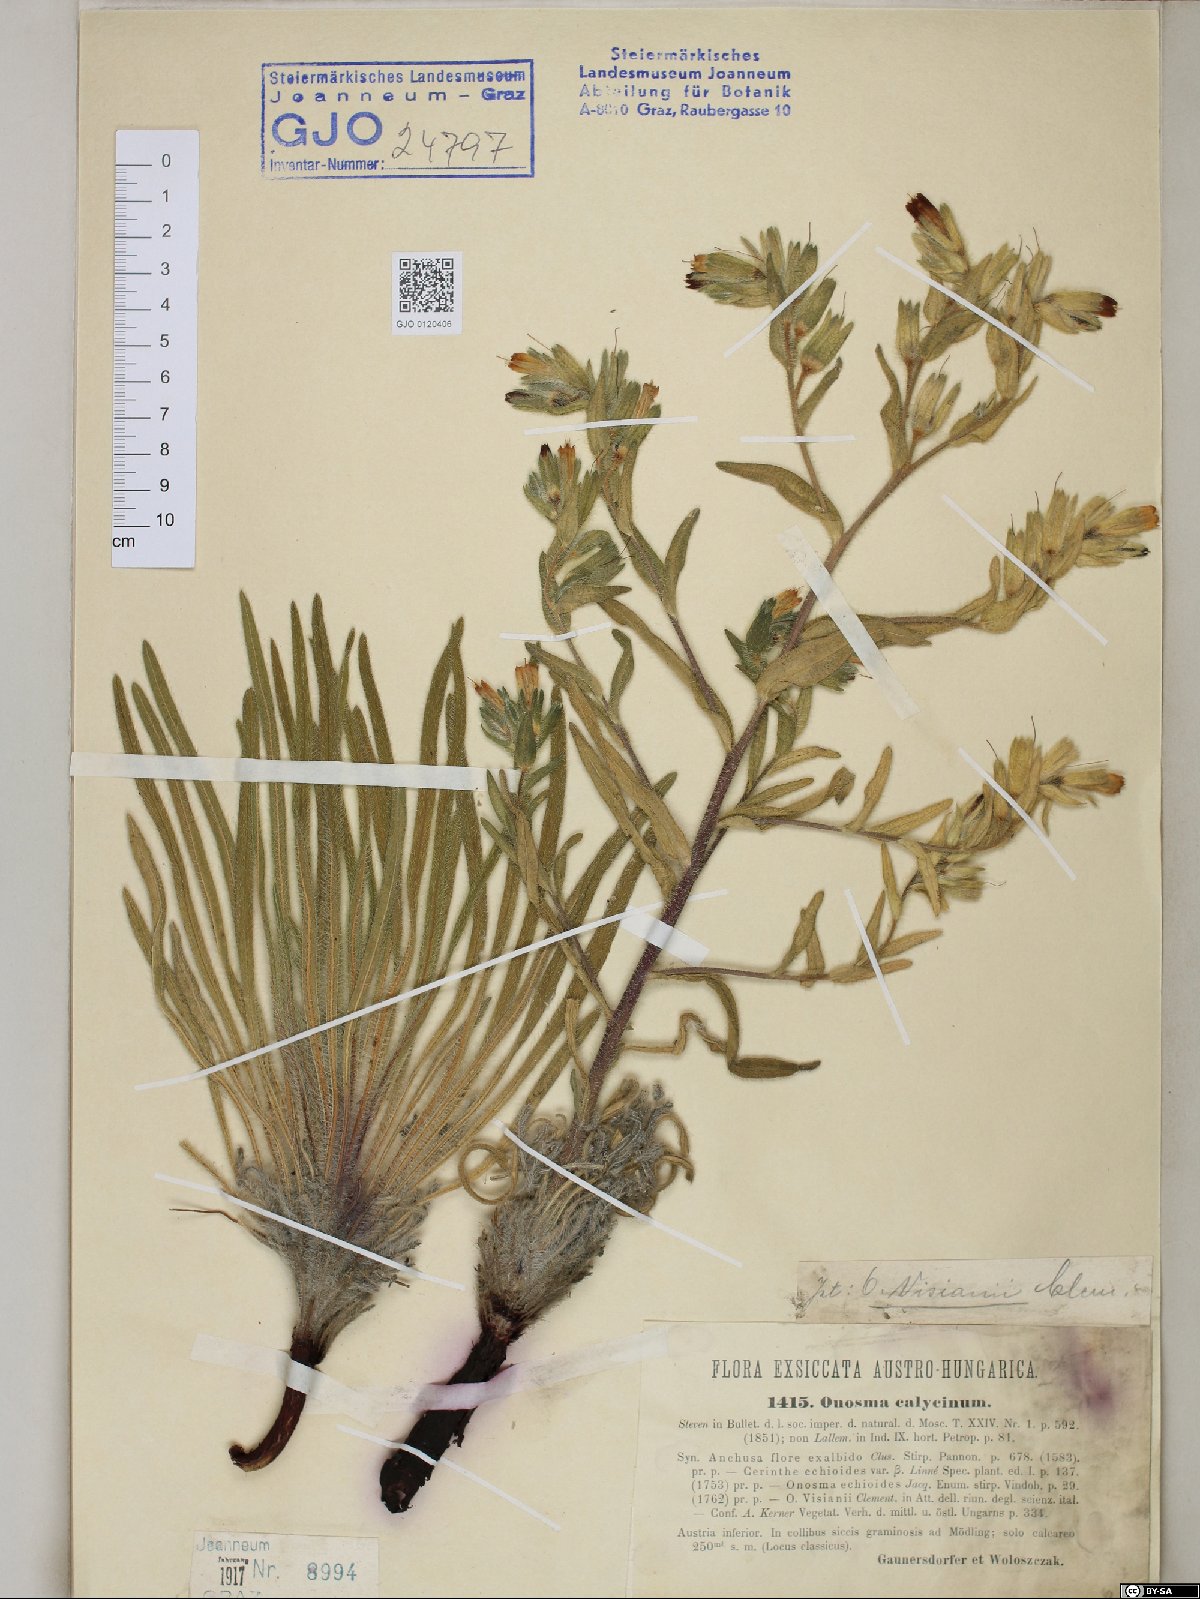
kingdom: Plantae
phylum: Tracheophyta
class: Magnoliopsida
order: Boraginales
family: Boraginaceae
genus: Onosma
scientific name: Onosma visianii
